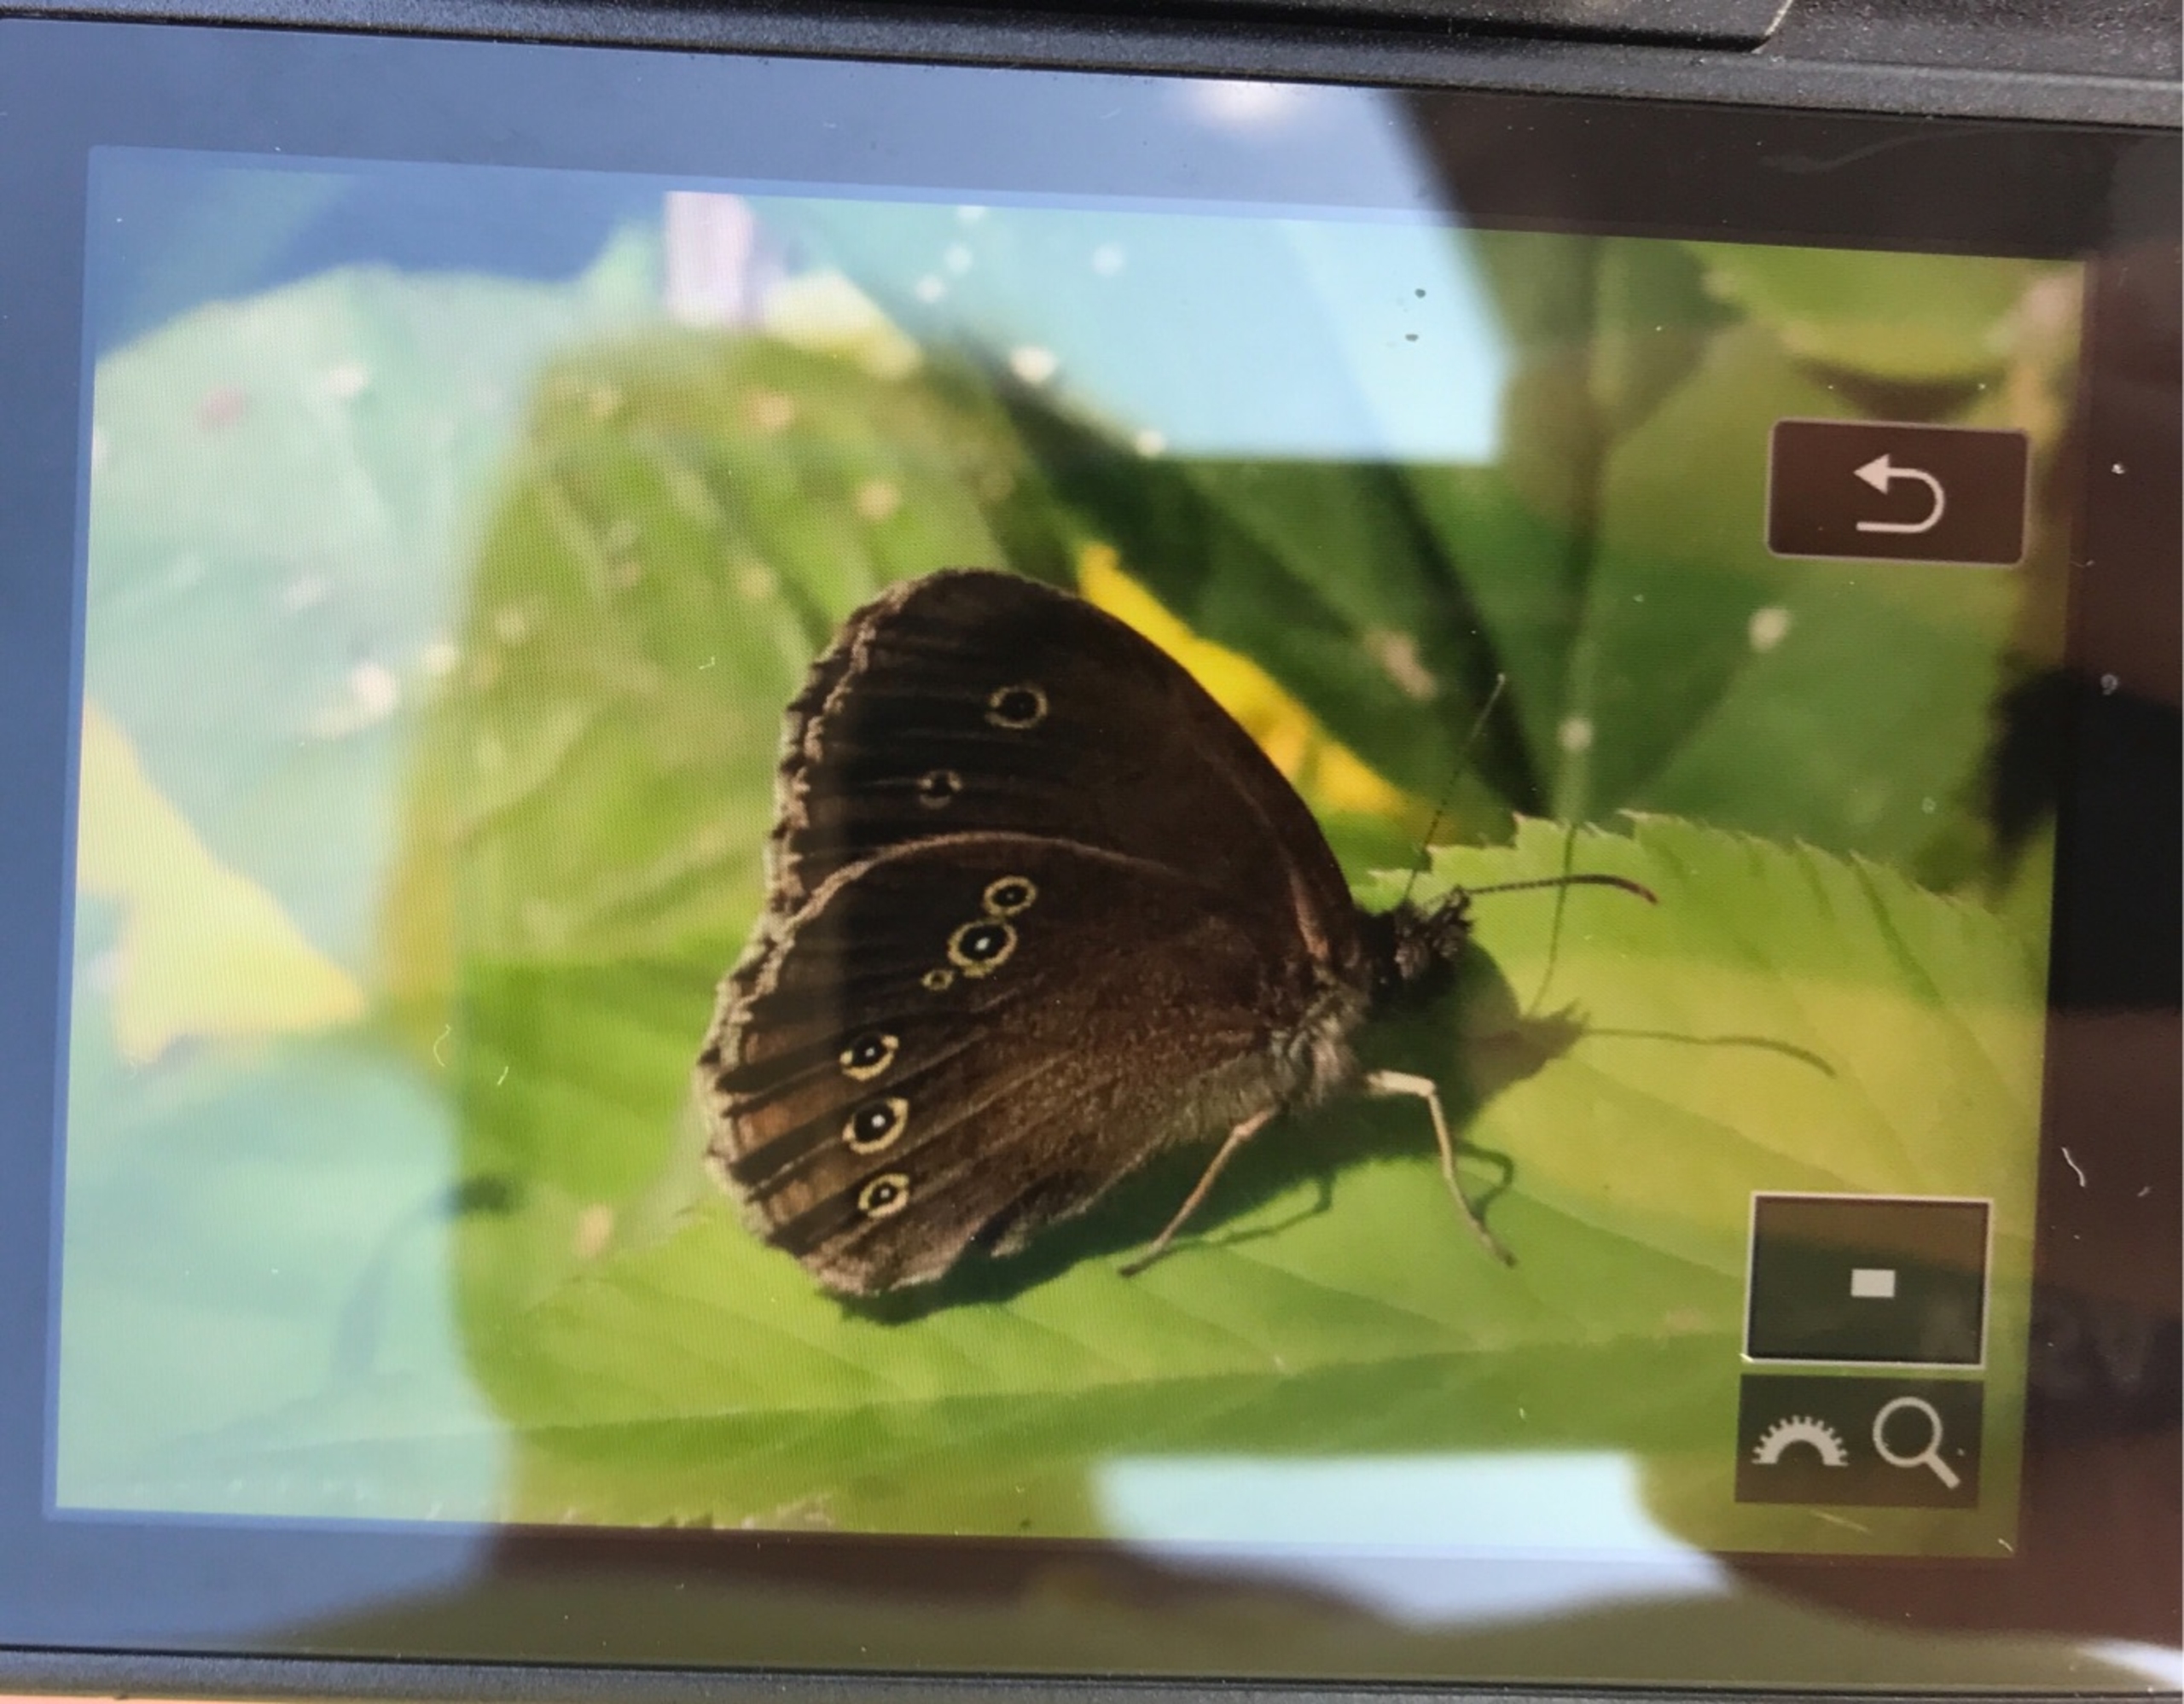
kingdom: Animalia
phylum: Arthropoda
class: Insecta
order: Lepidoptera
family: Nymphalidae
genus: Aphantopus
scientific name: Aphantopus hyperantus
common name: Engrandøje
